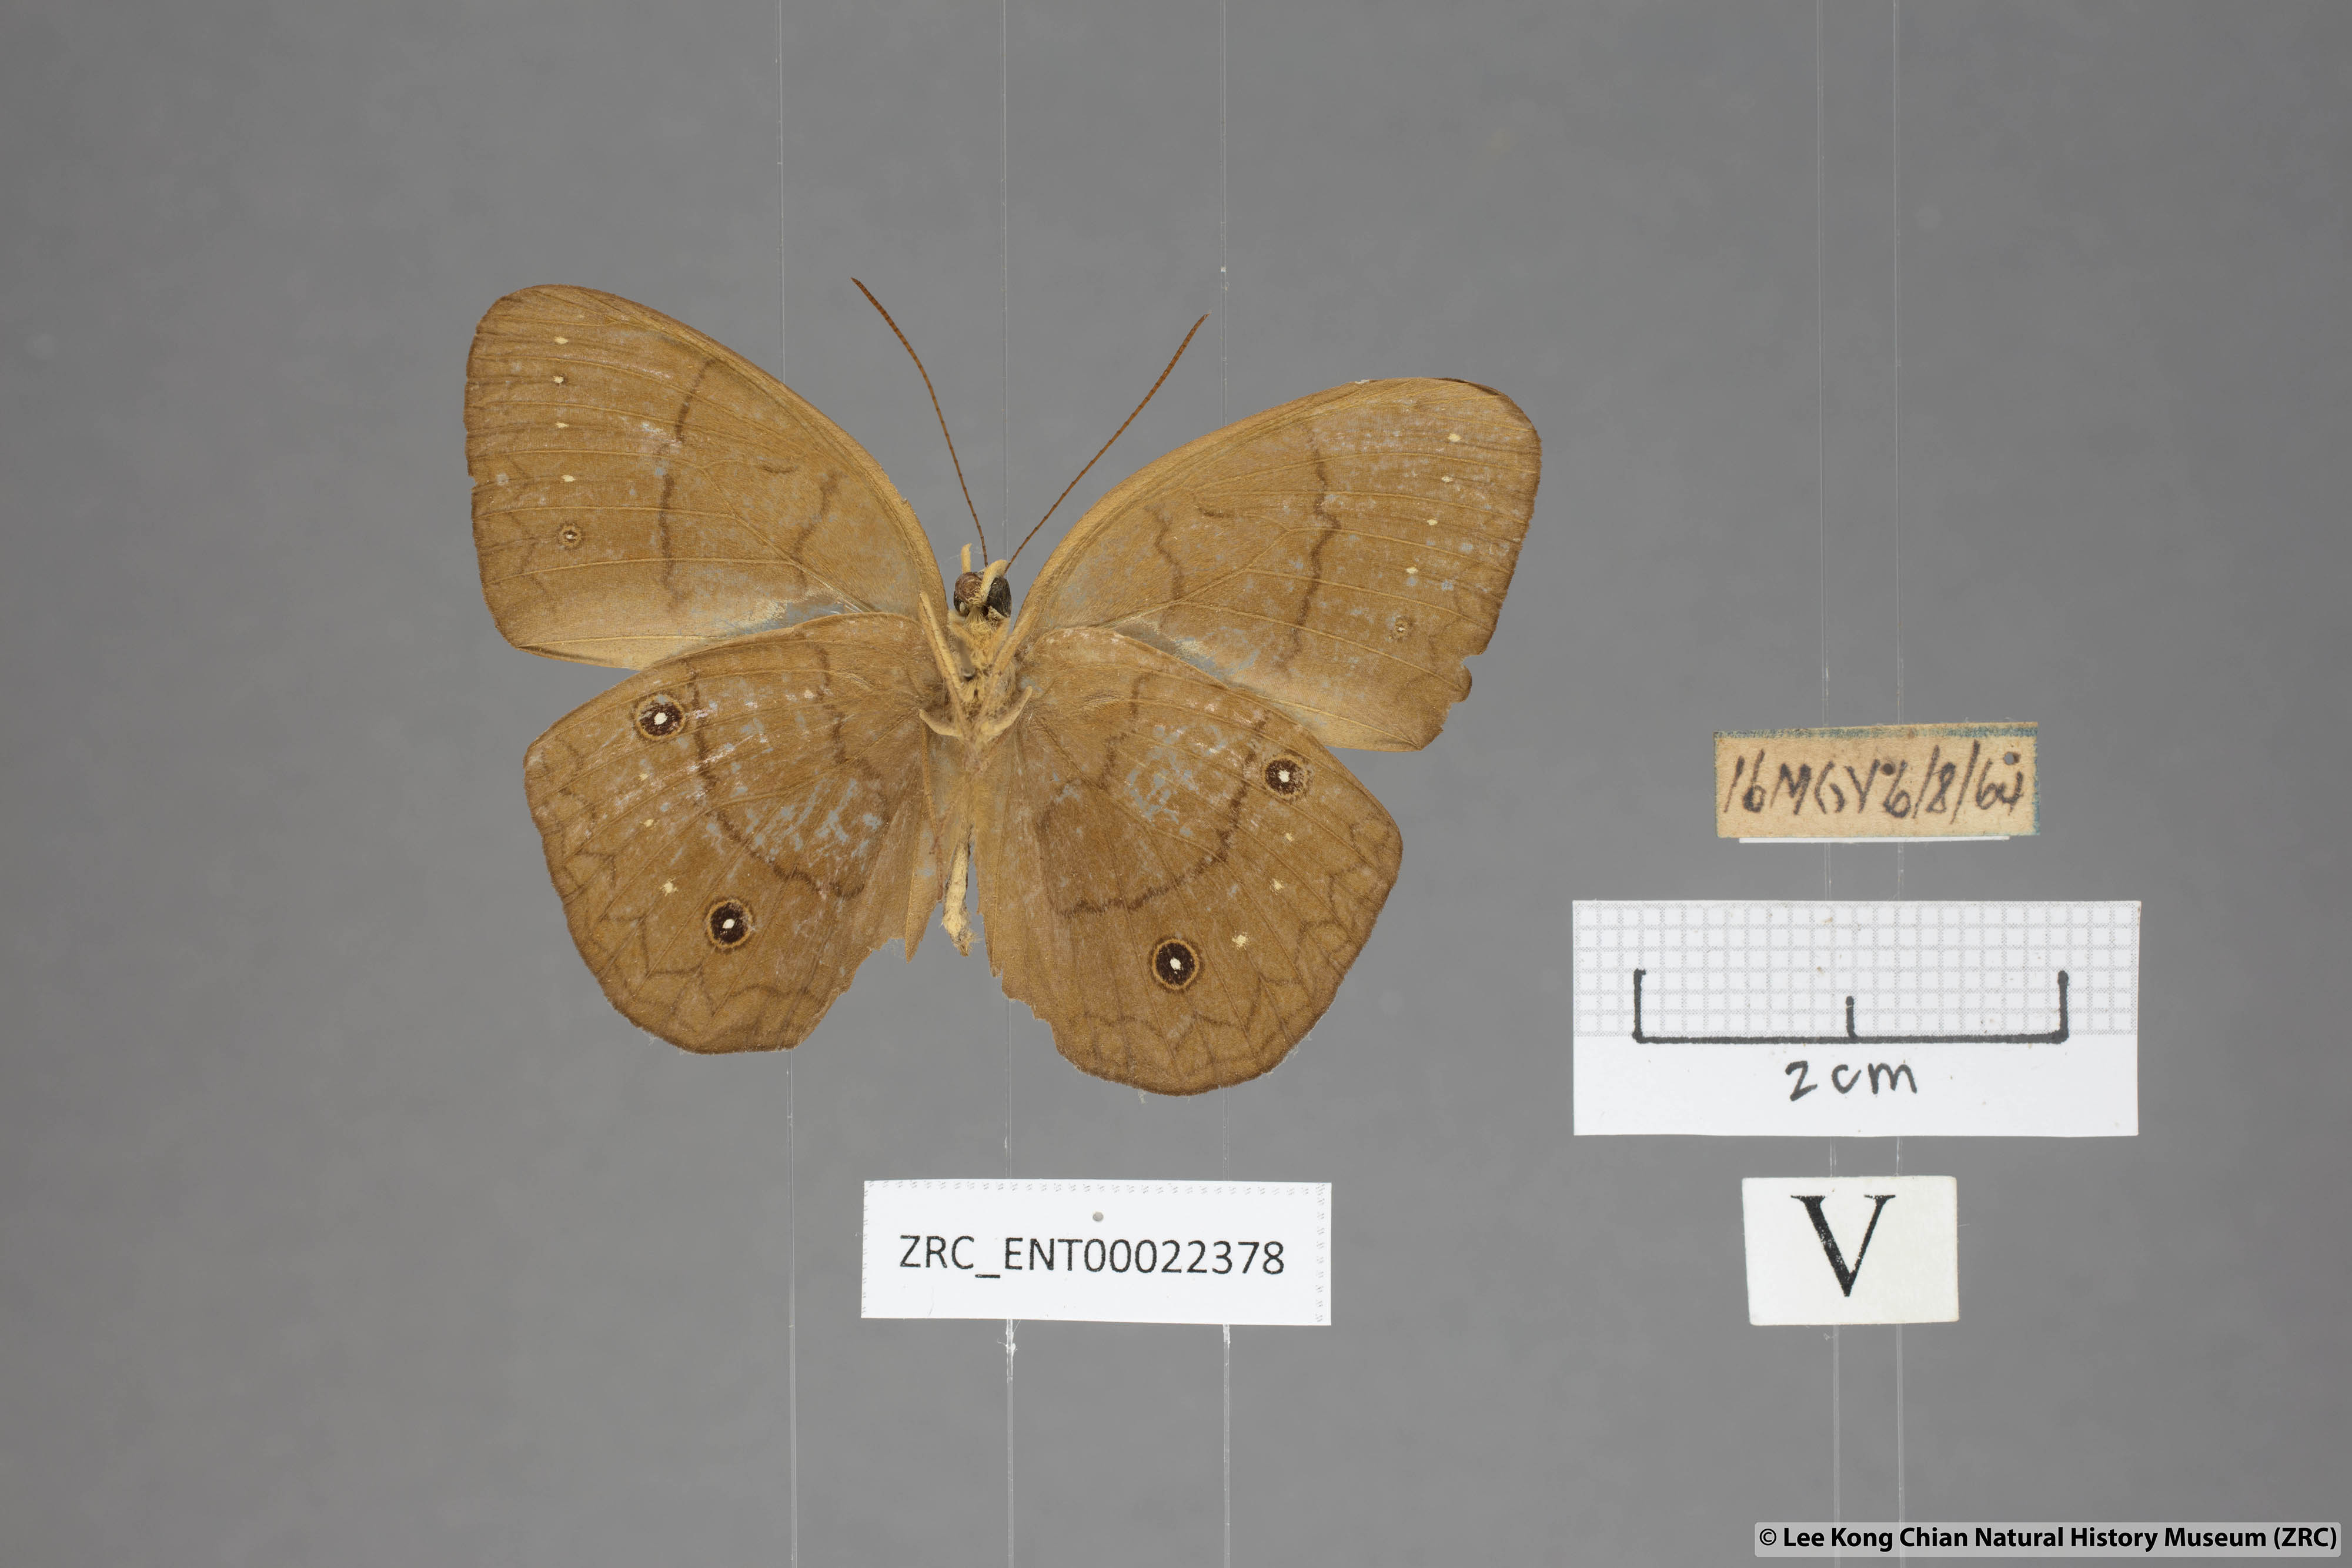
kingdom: Animalia
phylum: Arthropoda
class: Insecta
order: Lepidoptera
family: Nymphalidae
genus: Faunis
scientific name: Faunis gracilis
